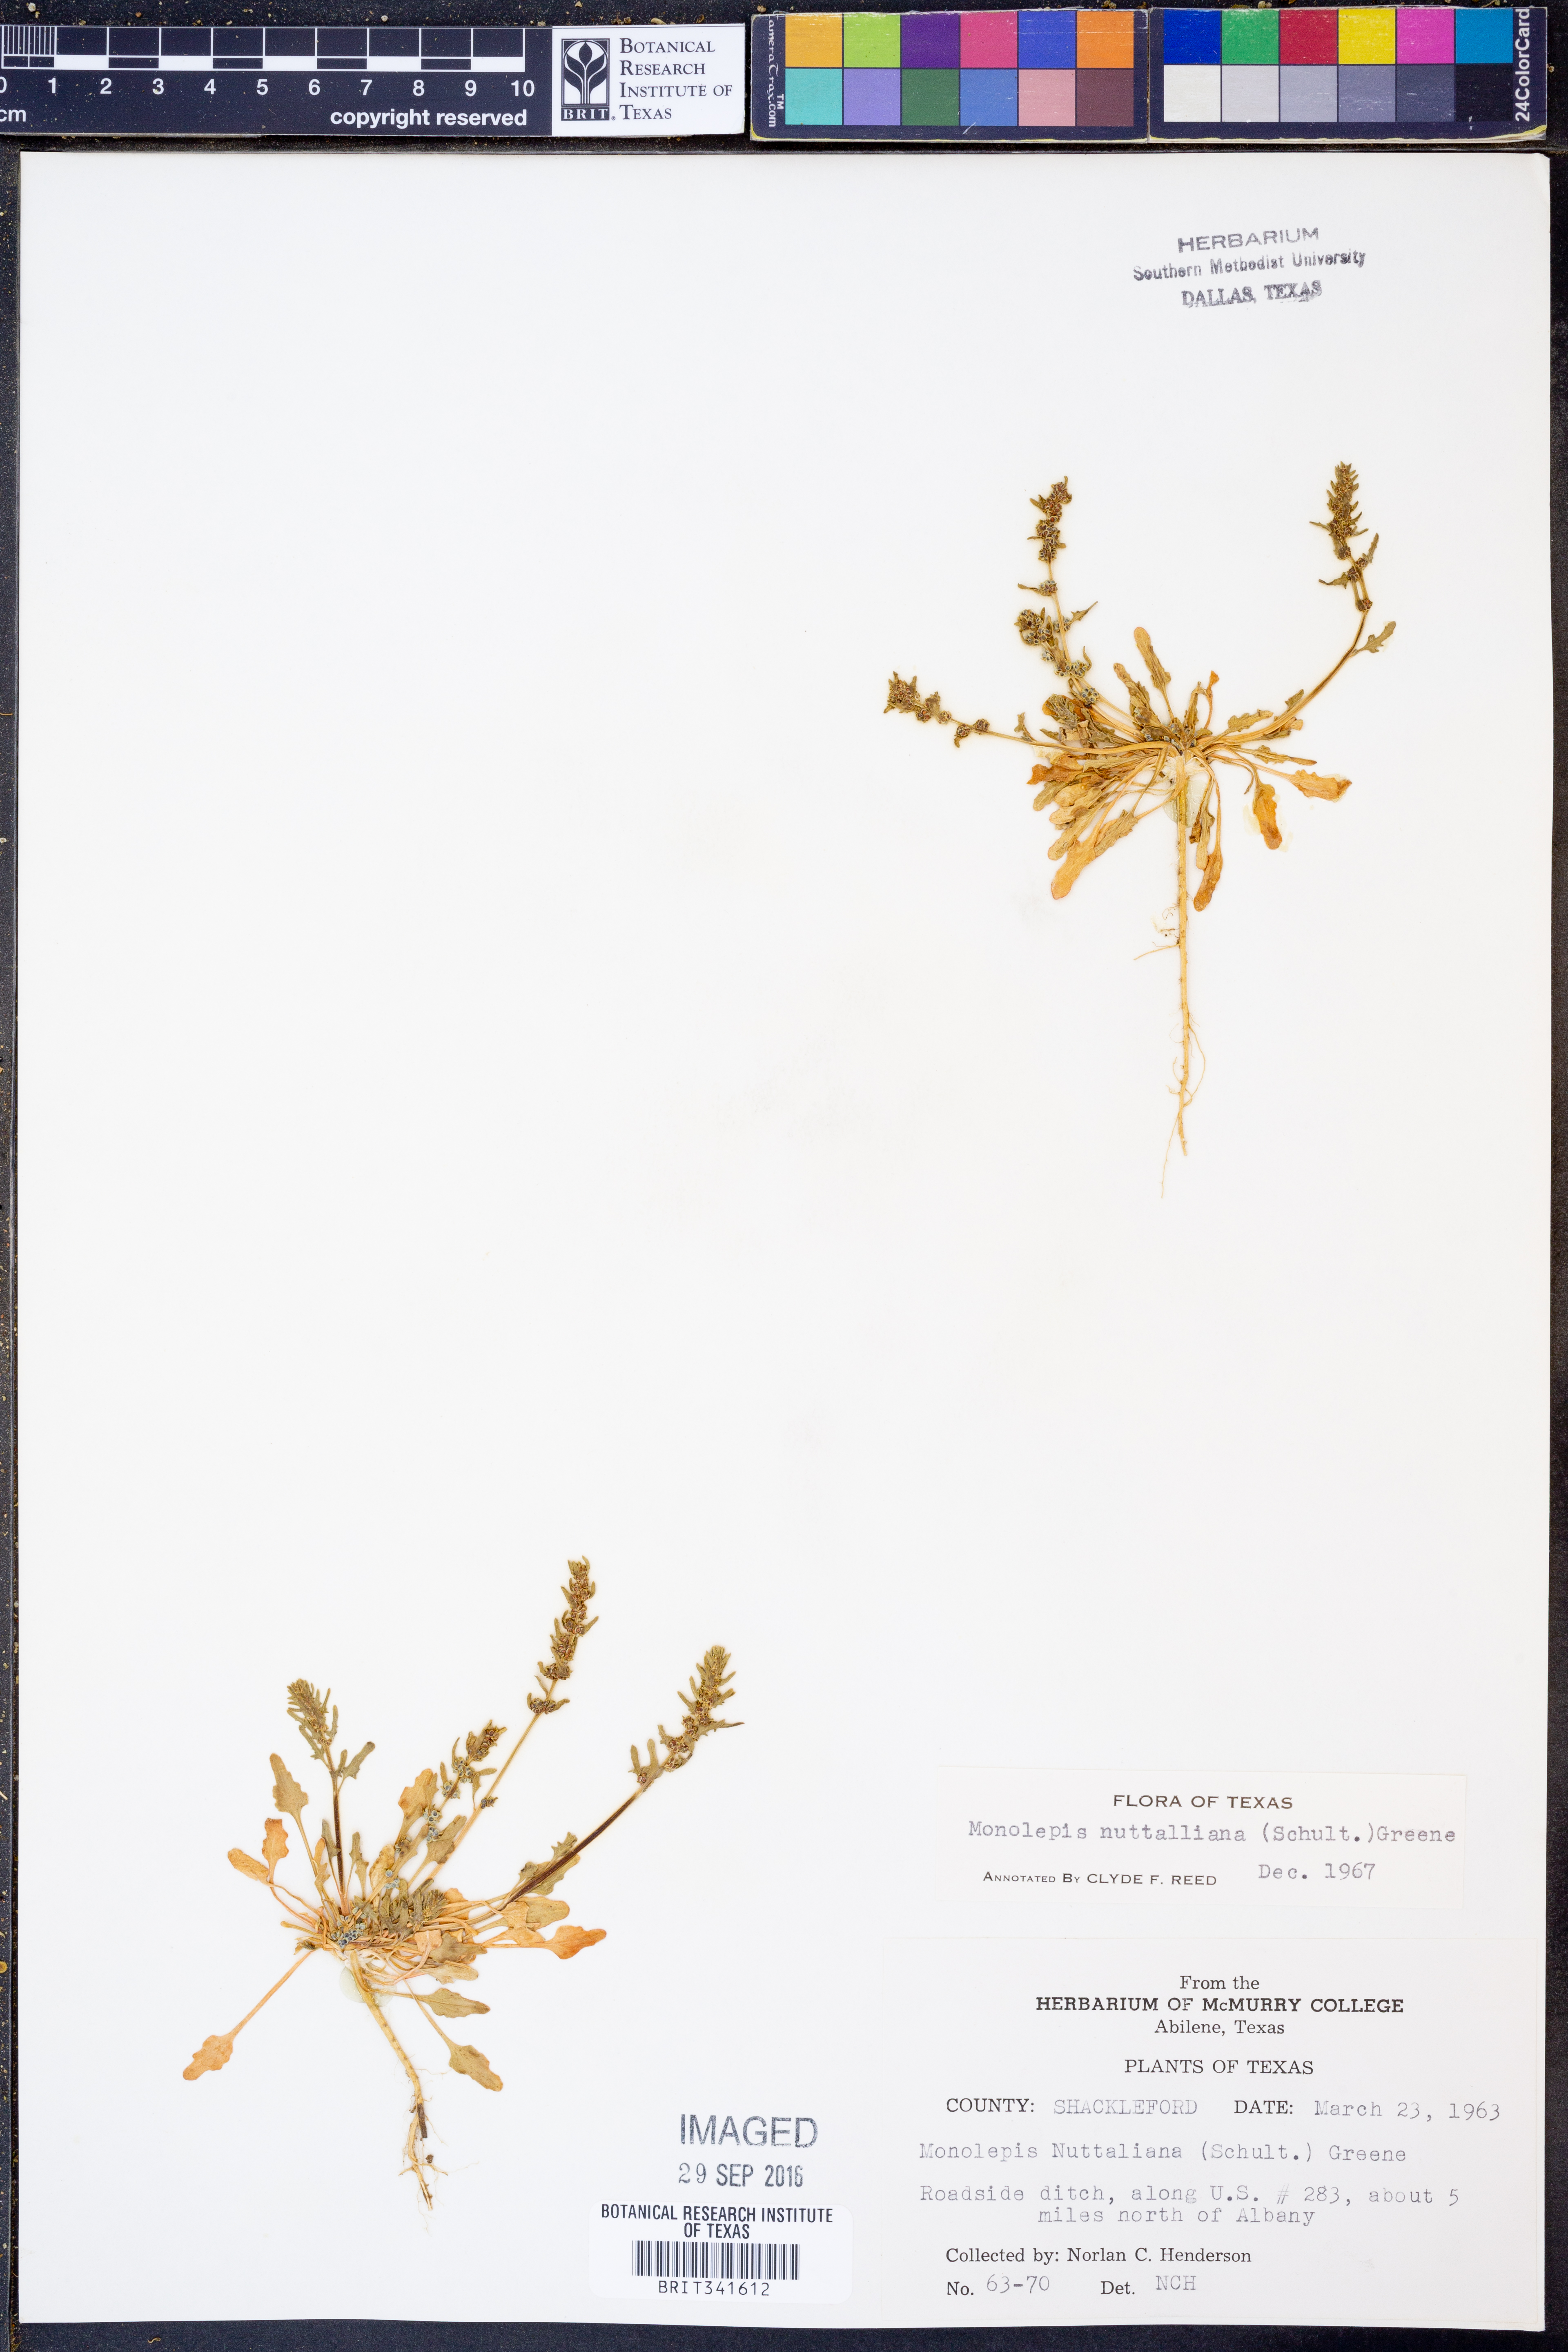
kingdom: Plantae
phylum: Tracheophyta
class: Magnoliopsida
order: Caryophyllales
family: Amaranthaceae
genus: Blitum
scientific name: Blitum nuttallianum
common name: Poverty-weed
